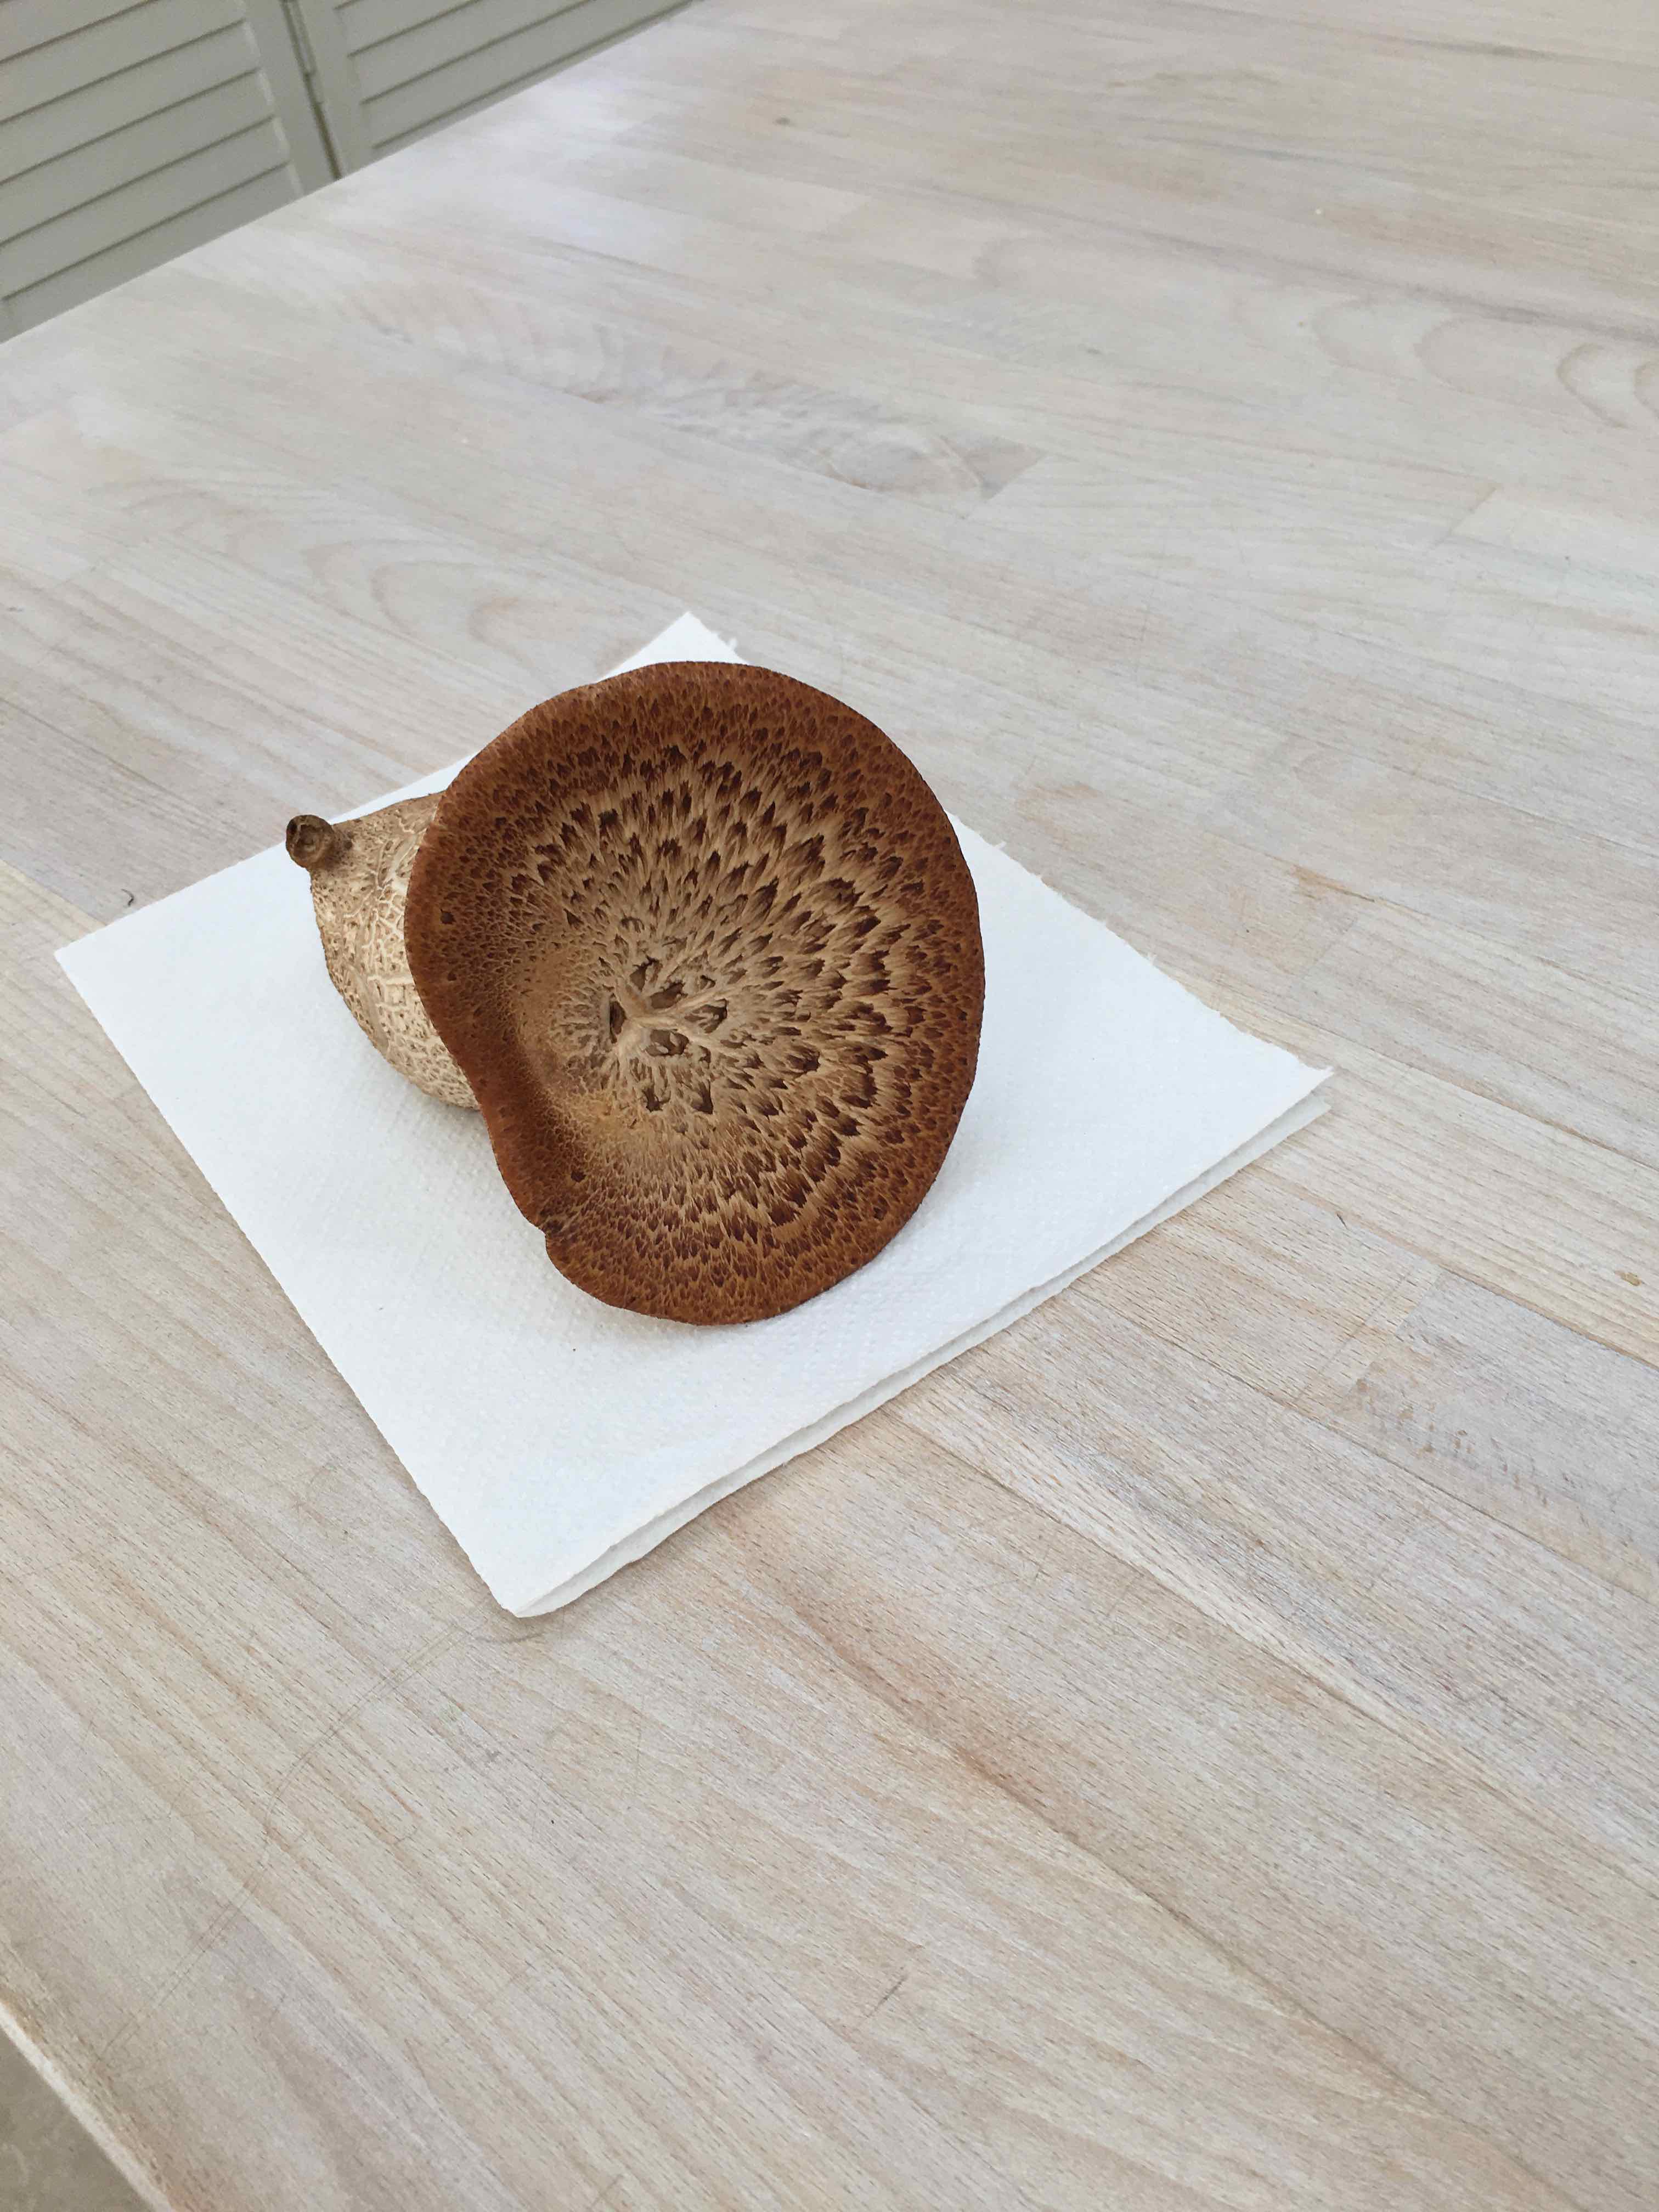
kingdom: Fungi
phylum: Basidiomycota
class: Agaricomycetes
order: Polyporales
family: Polyporaceae
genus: Cerioporus
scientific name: Cerioporus squamosus
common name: skællet stilkporesvamp
